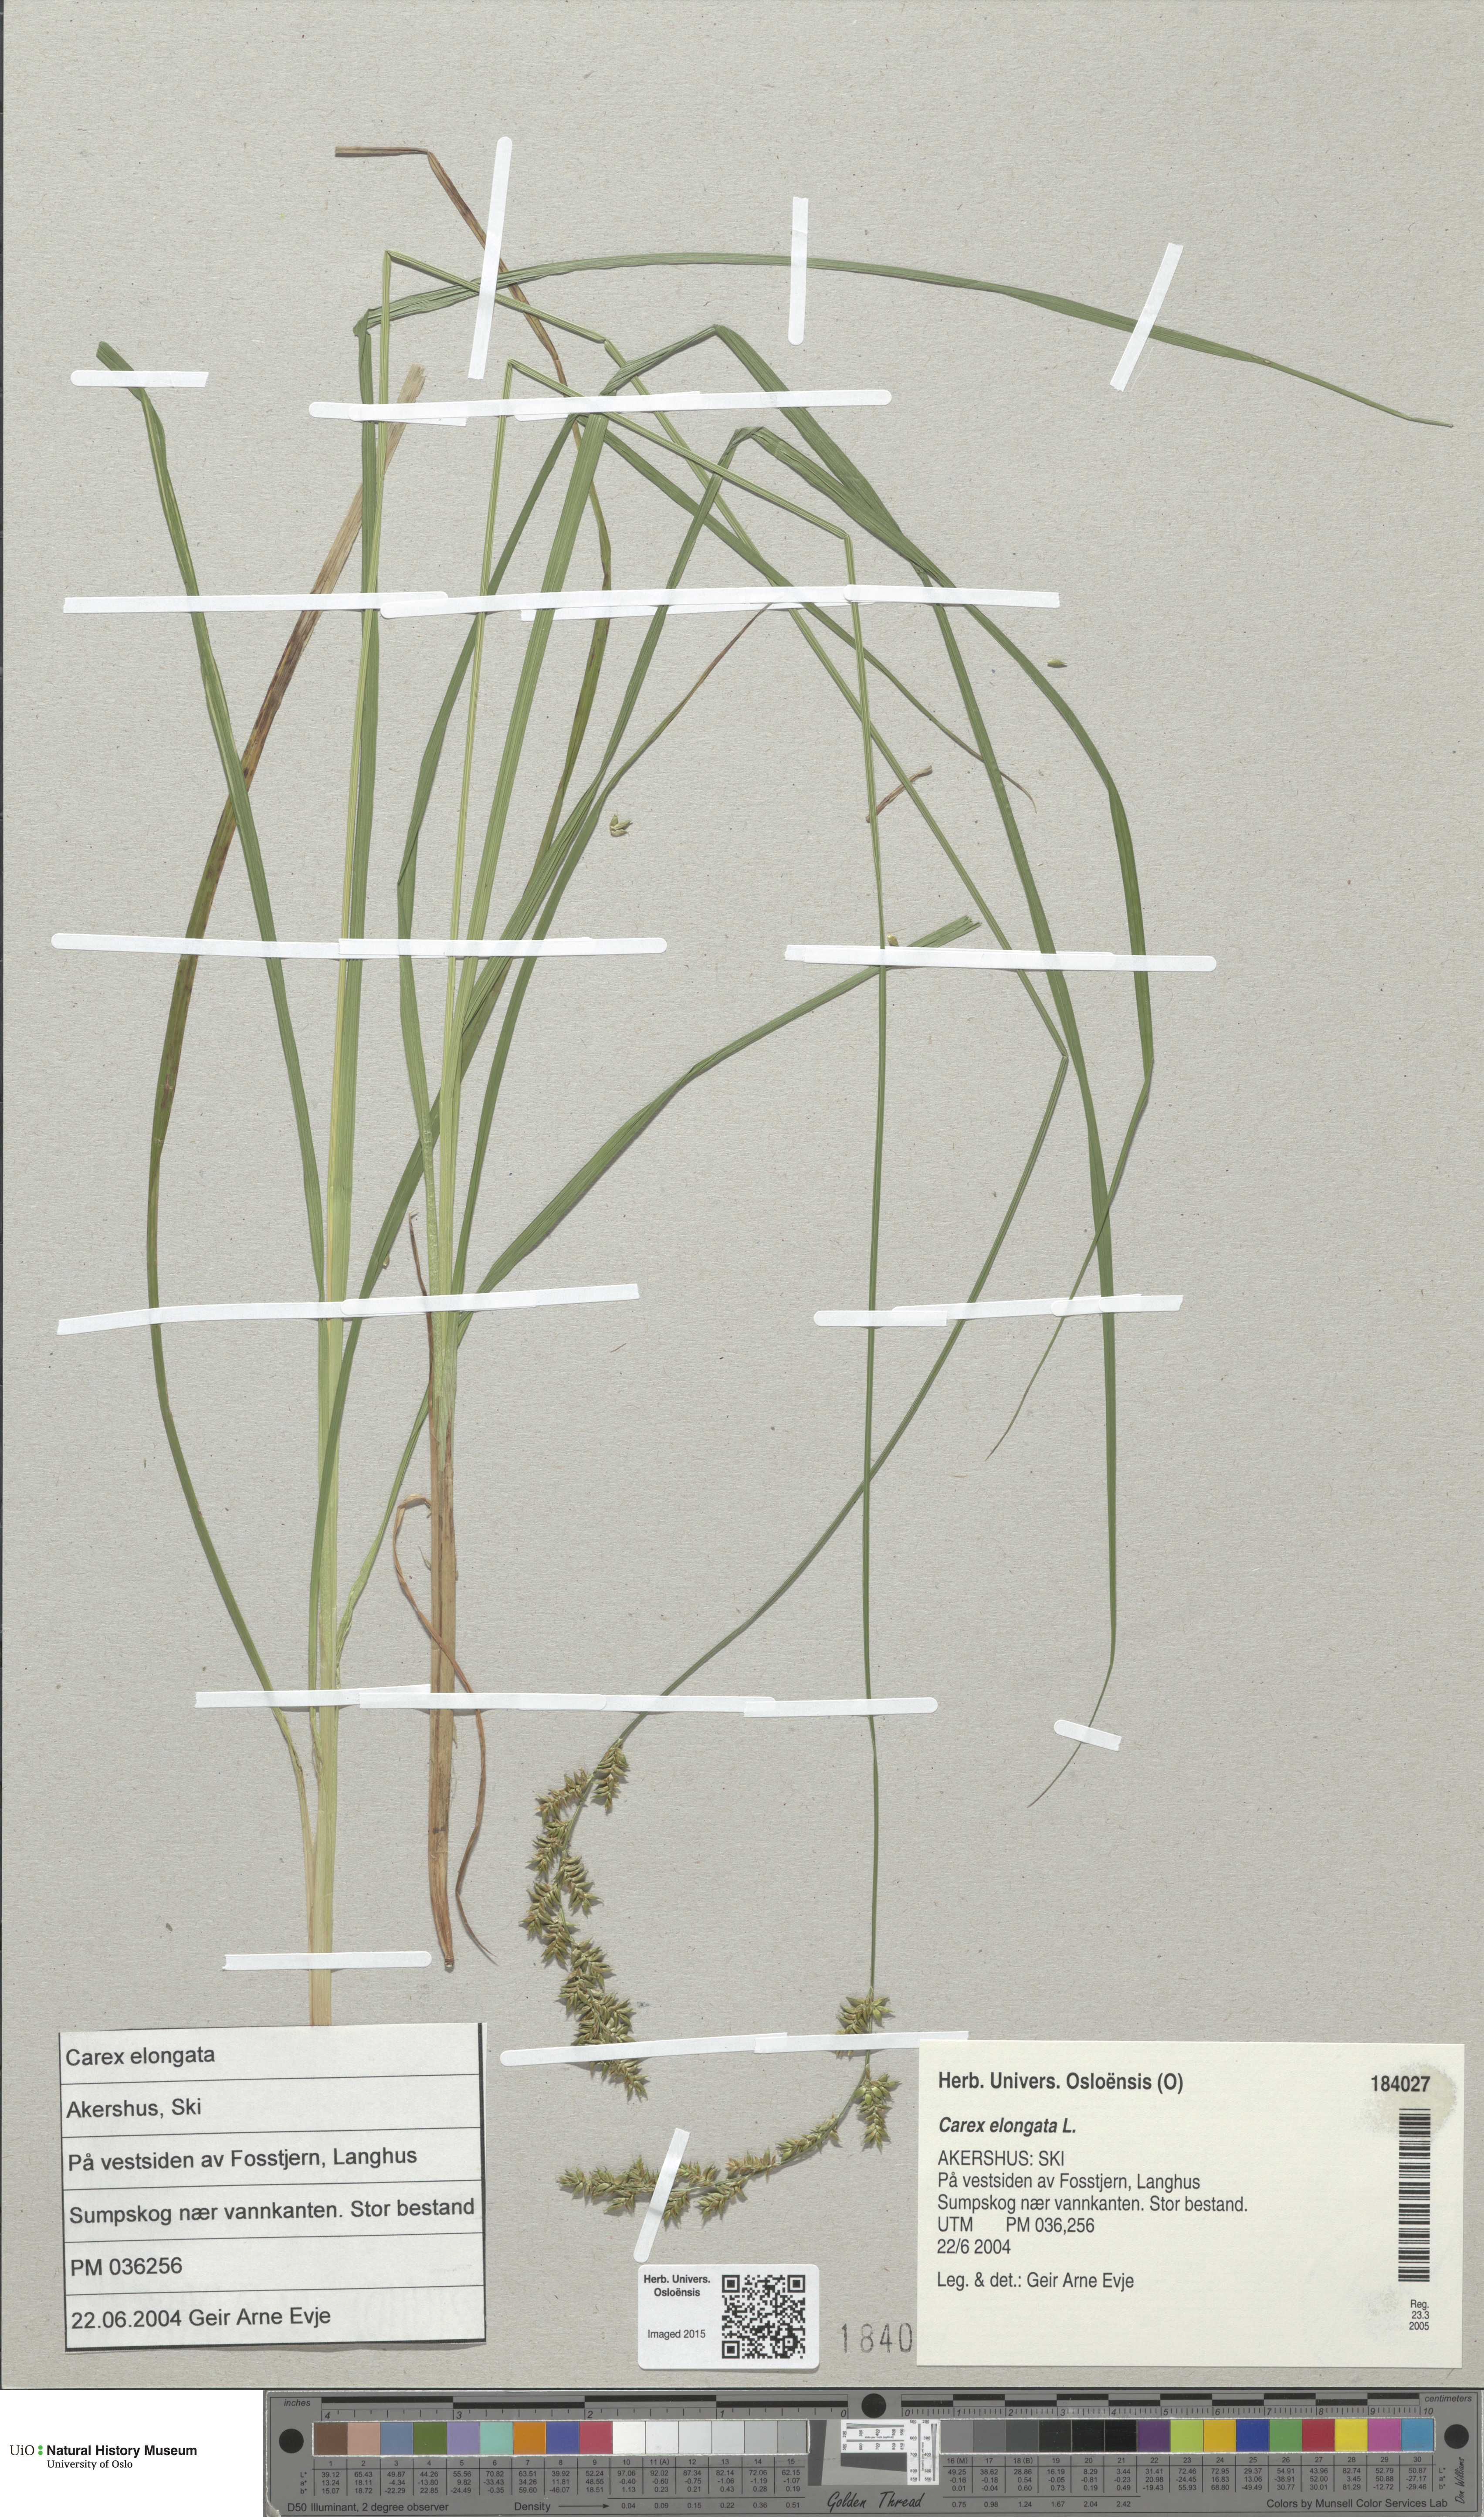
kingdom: Plantae
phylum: Tracheophyta
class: Liliopsida
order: Poales
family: Cyperaceae
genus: Carex
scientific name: Carex elongata
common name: Elongated sedge
